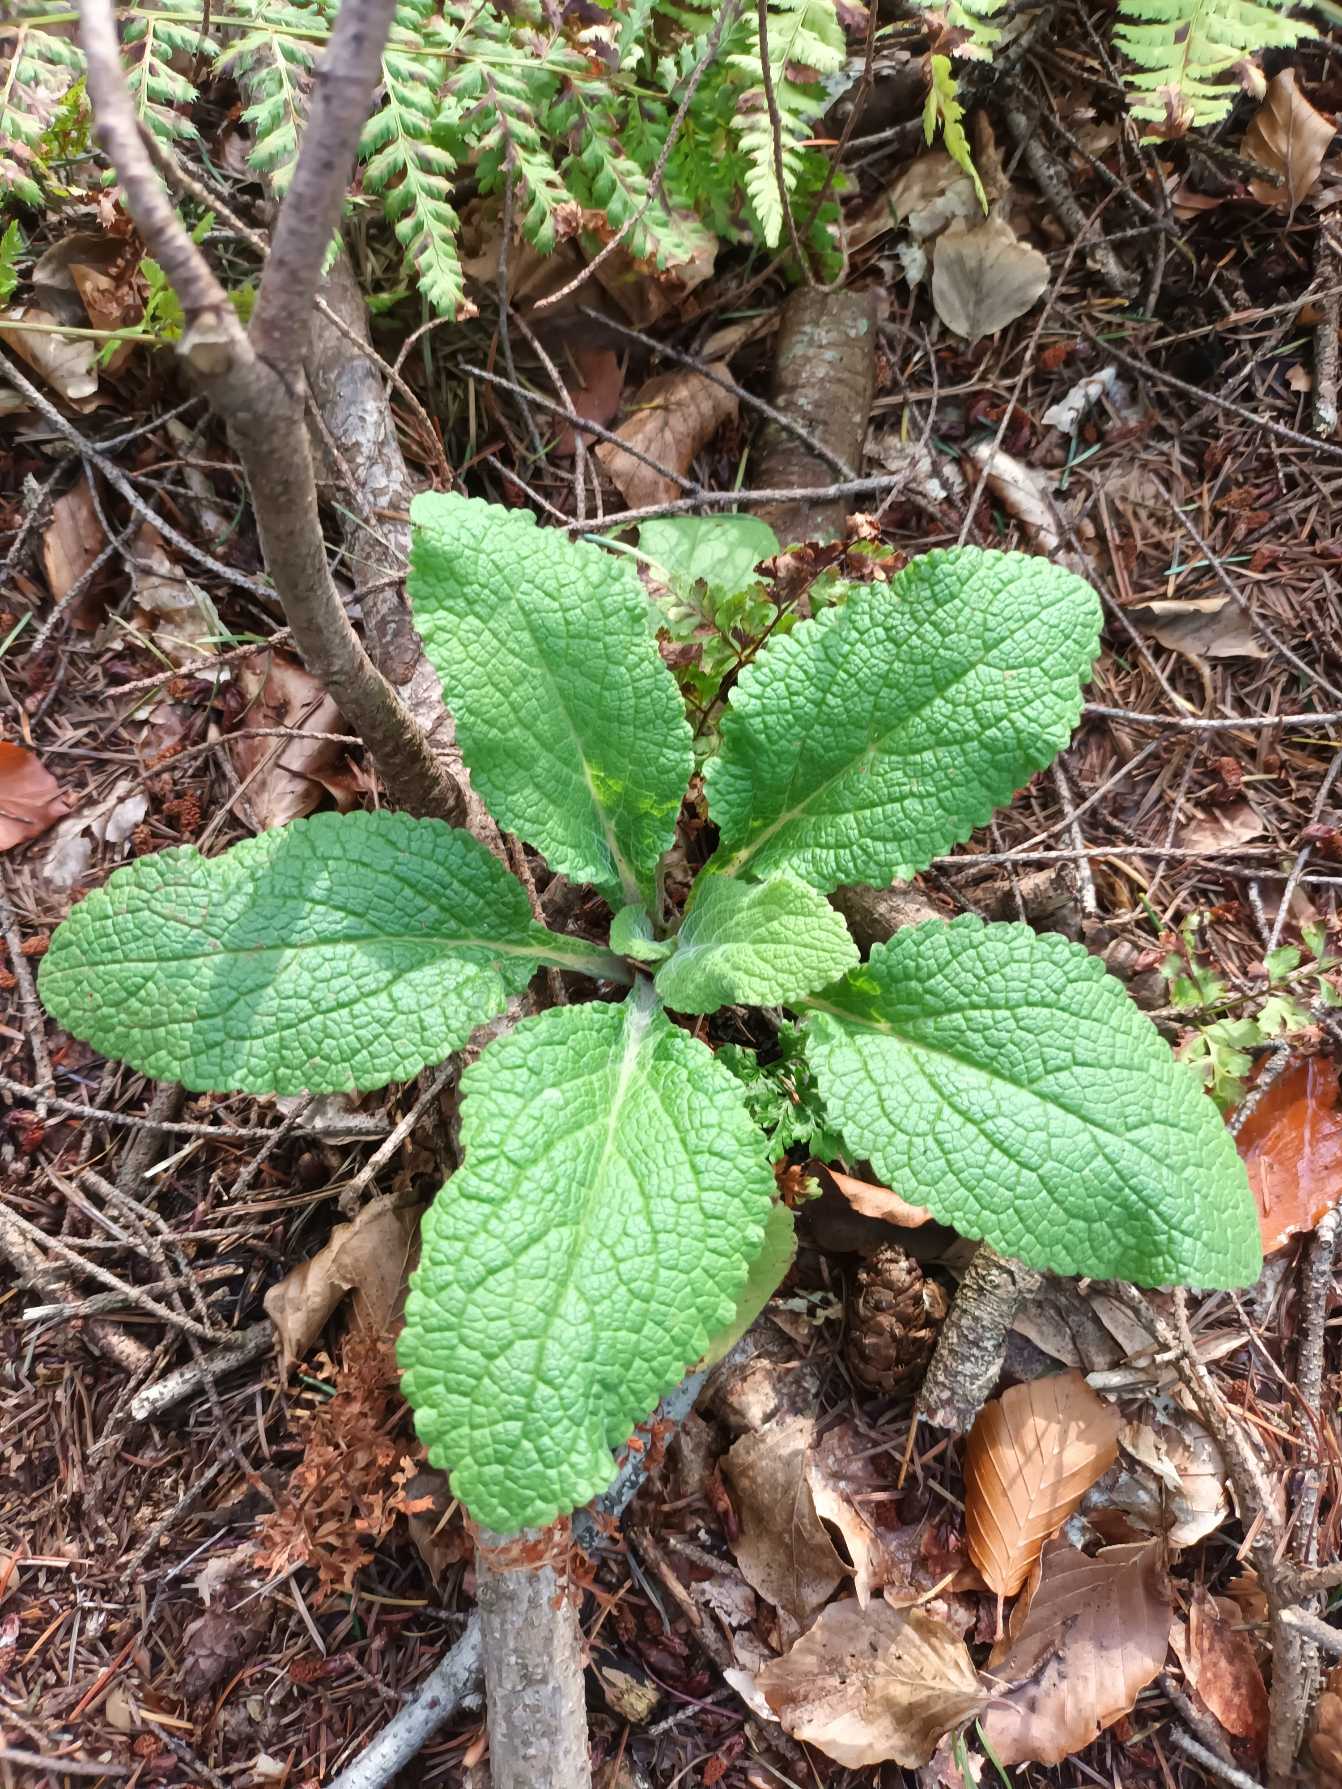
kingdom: Plantae
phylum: Tracheophyta
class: Magnoliopsida
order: Lamiales
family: Plantaginaceae
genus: Digitalis
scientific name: Digitalis purpurea
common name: Almindelig fingerbøl
